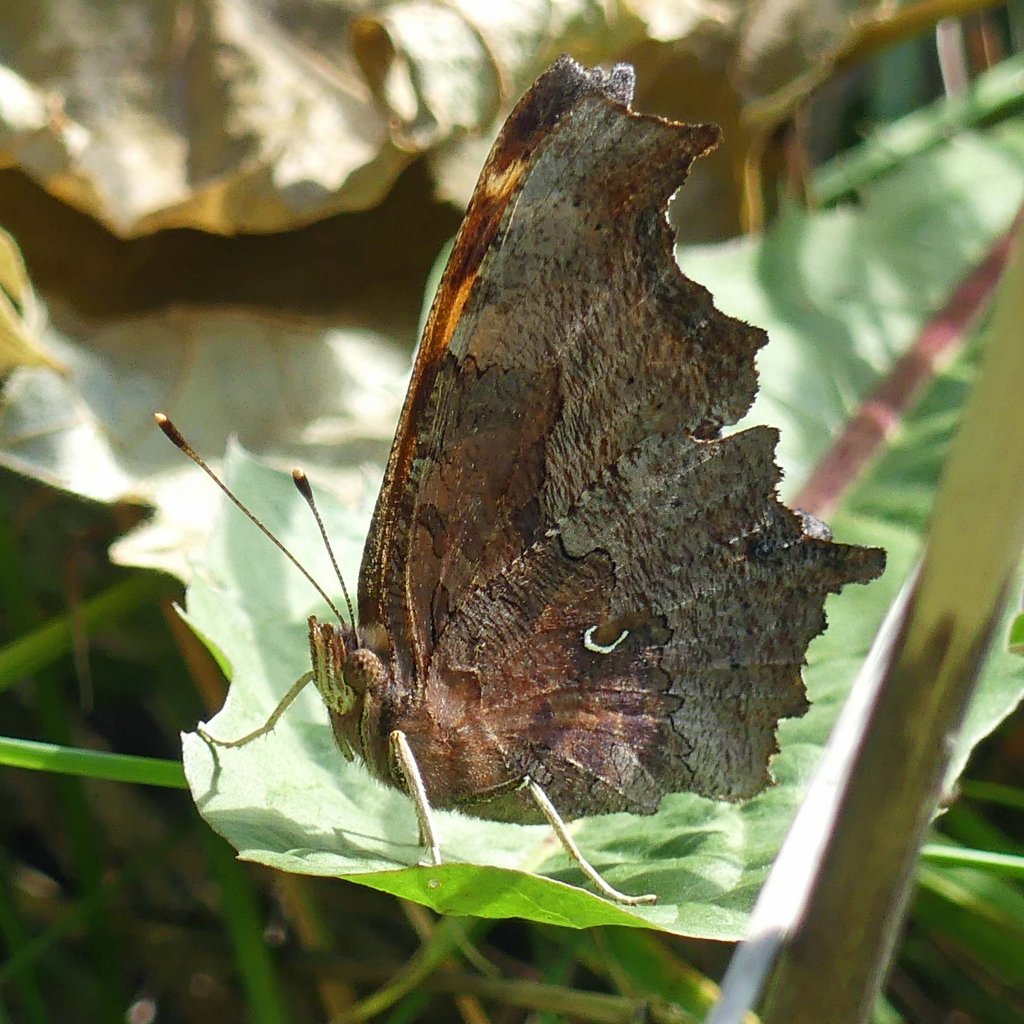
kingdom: Animalia
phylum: Arthropoda
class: Insecta
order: Lepidoptera
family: Nymphalidae
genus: Polygonia
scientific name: Polygonia comma
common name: Eastern Comma
